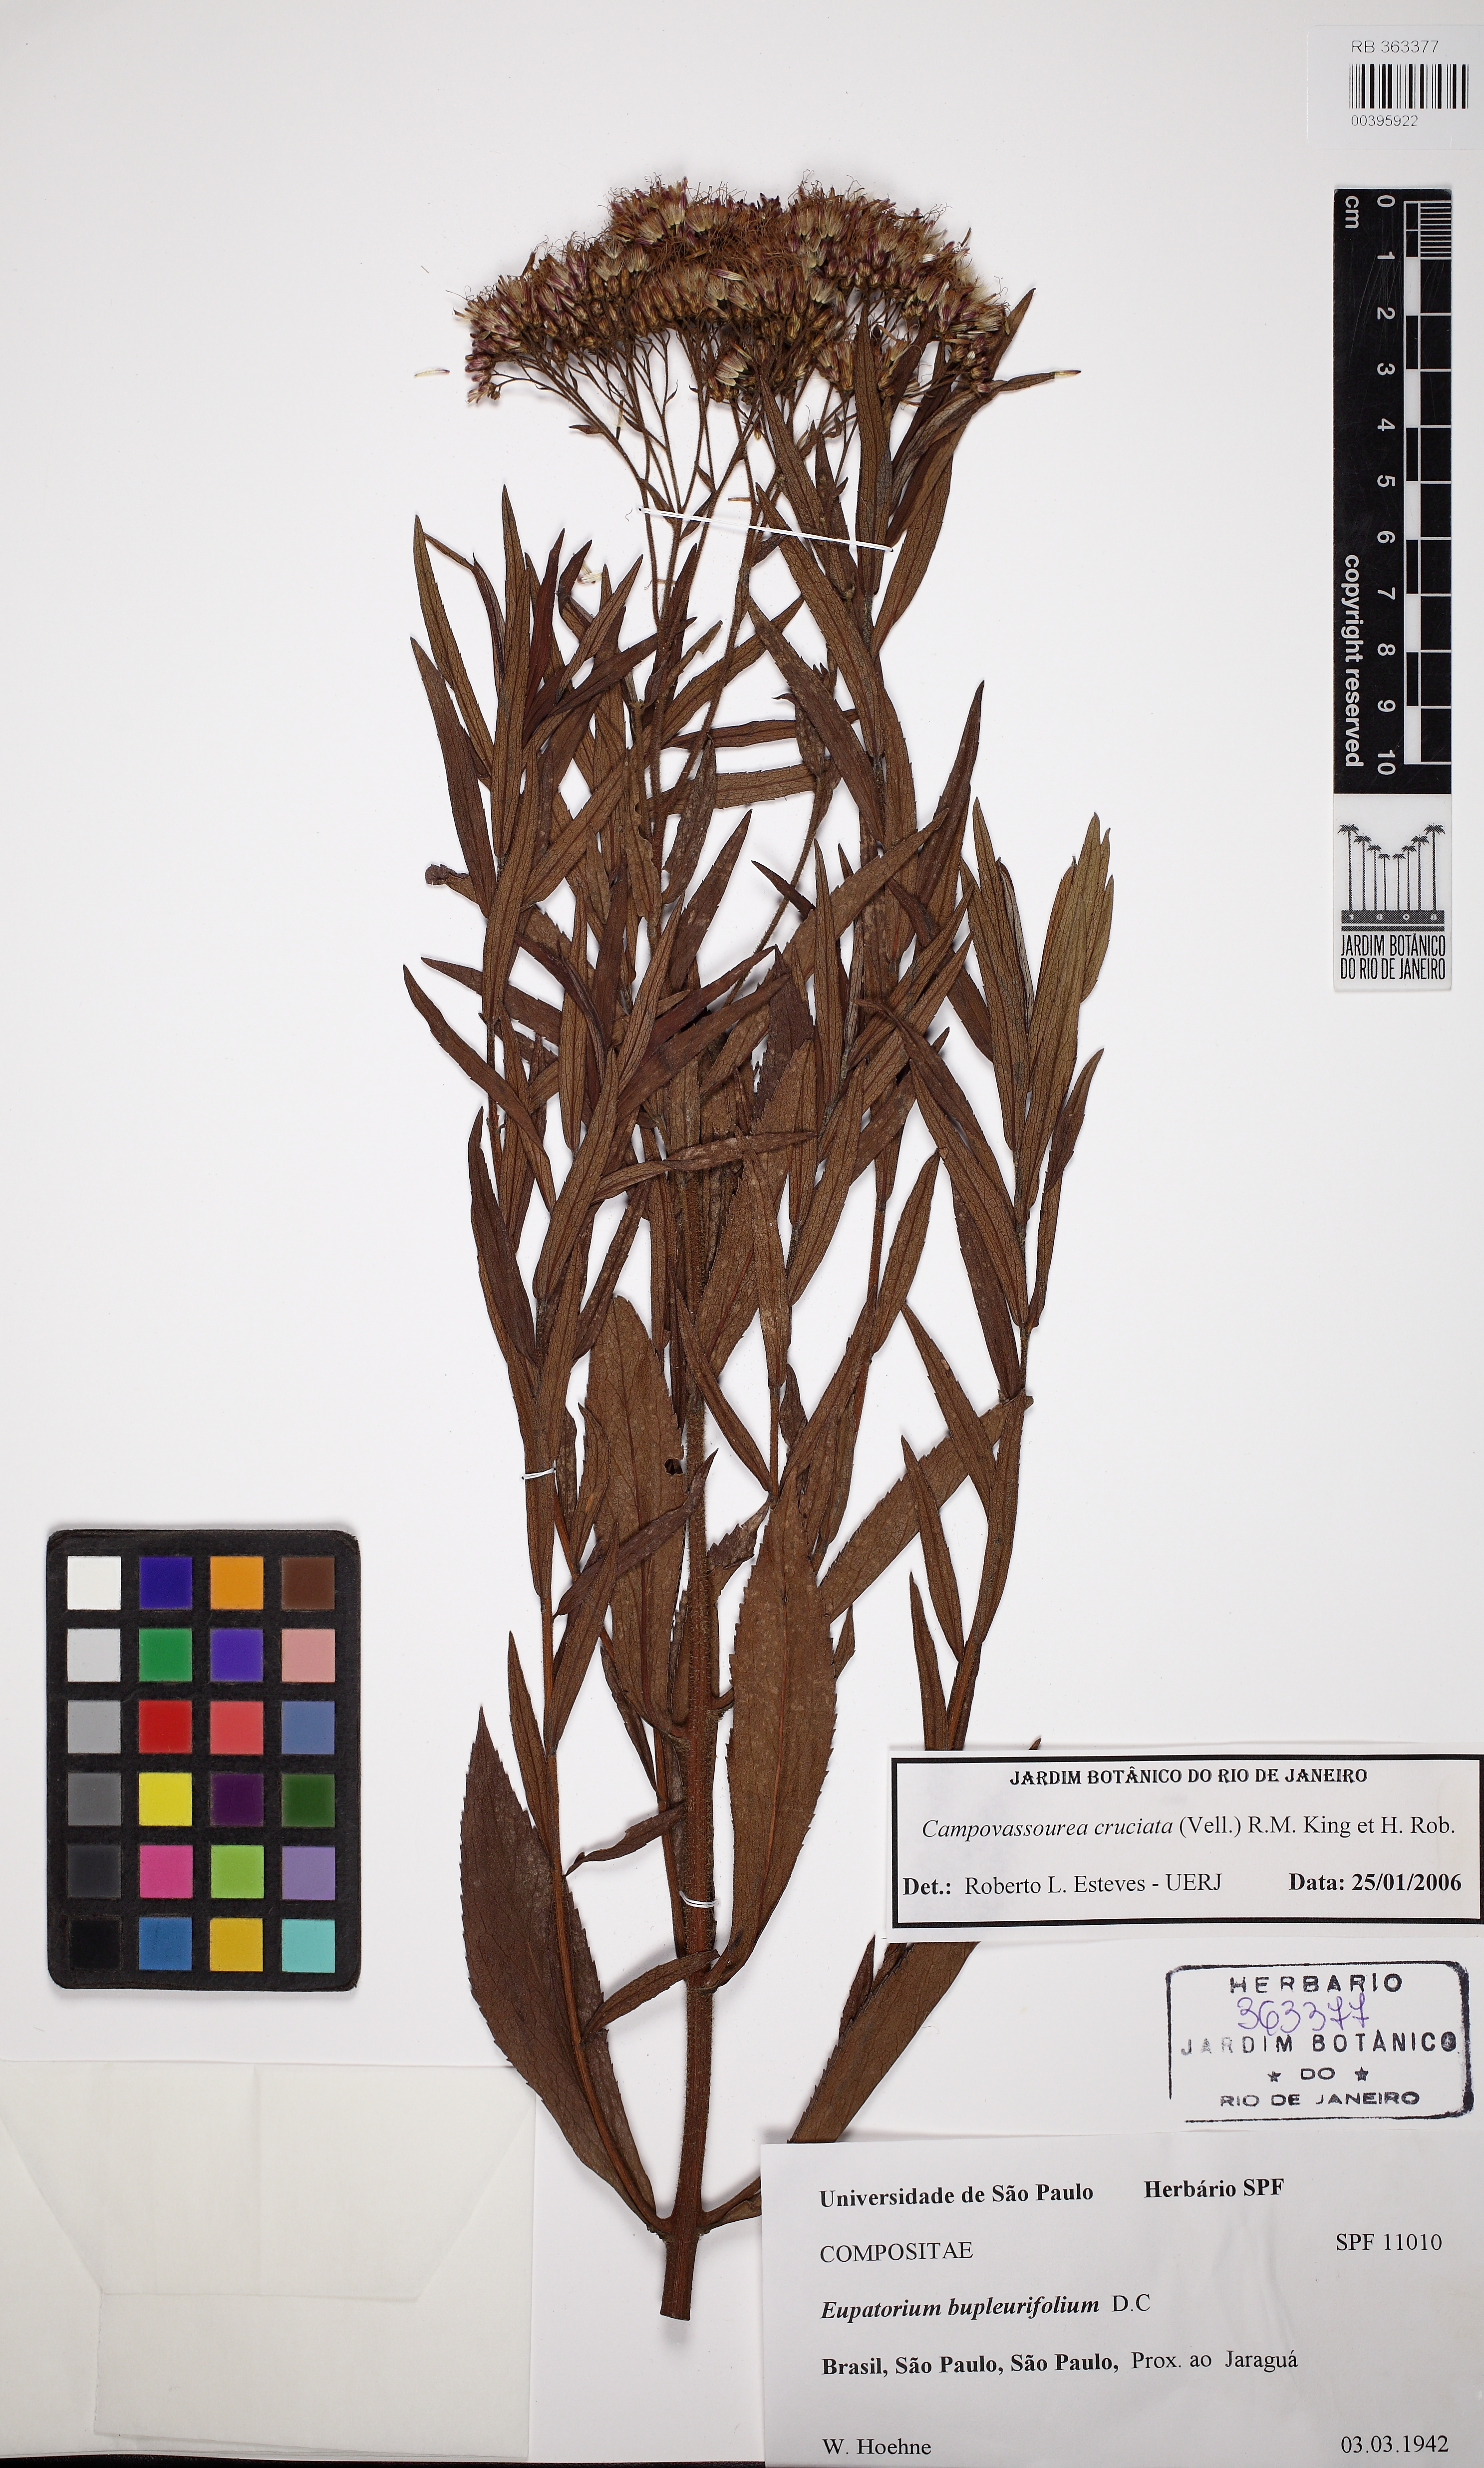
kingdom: Plantae
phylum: Tracheophyta
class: Magnoliopsida
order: Asterales
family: Asteraceae
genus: Campovassouria
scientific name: Campovassouria cruciata
